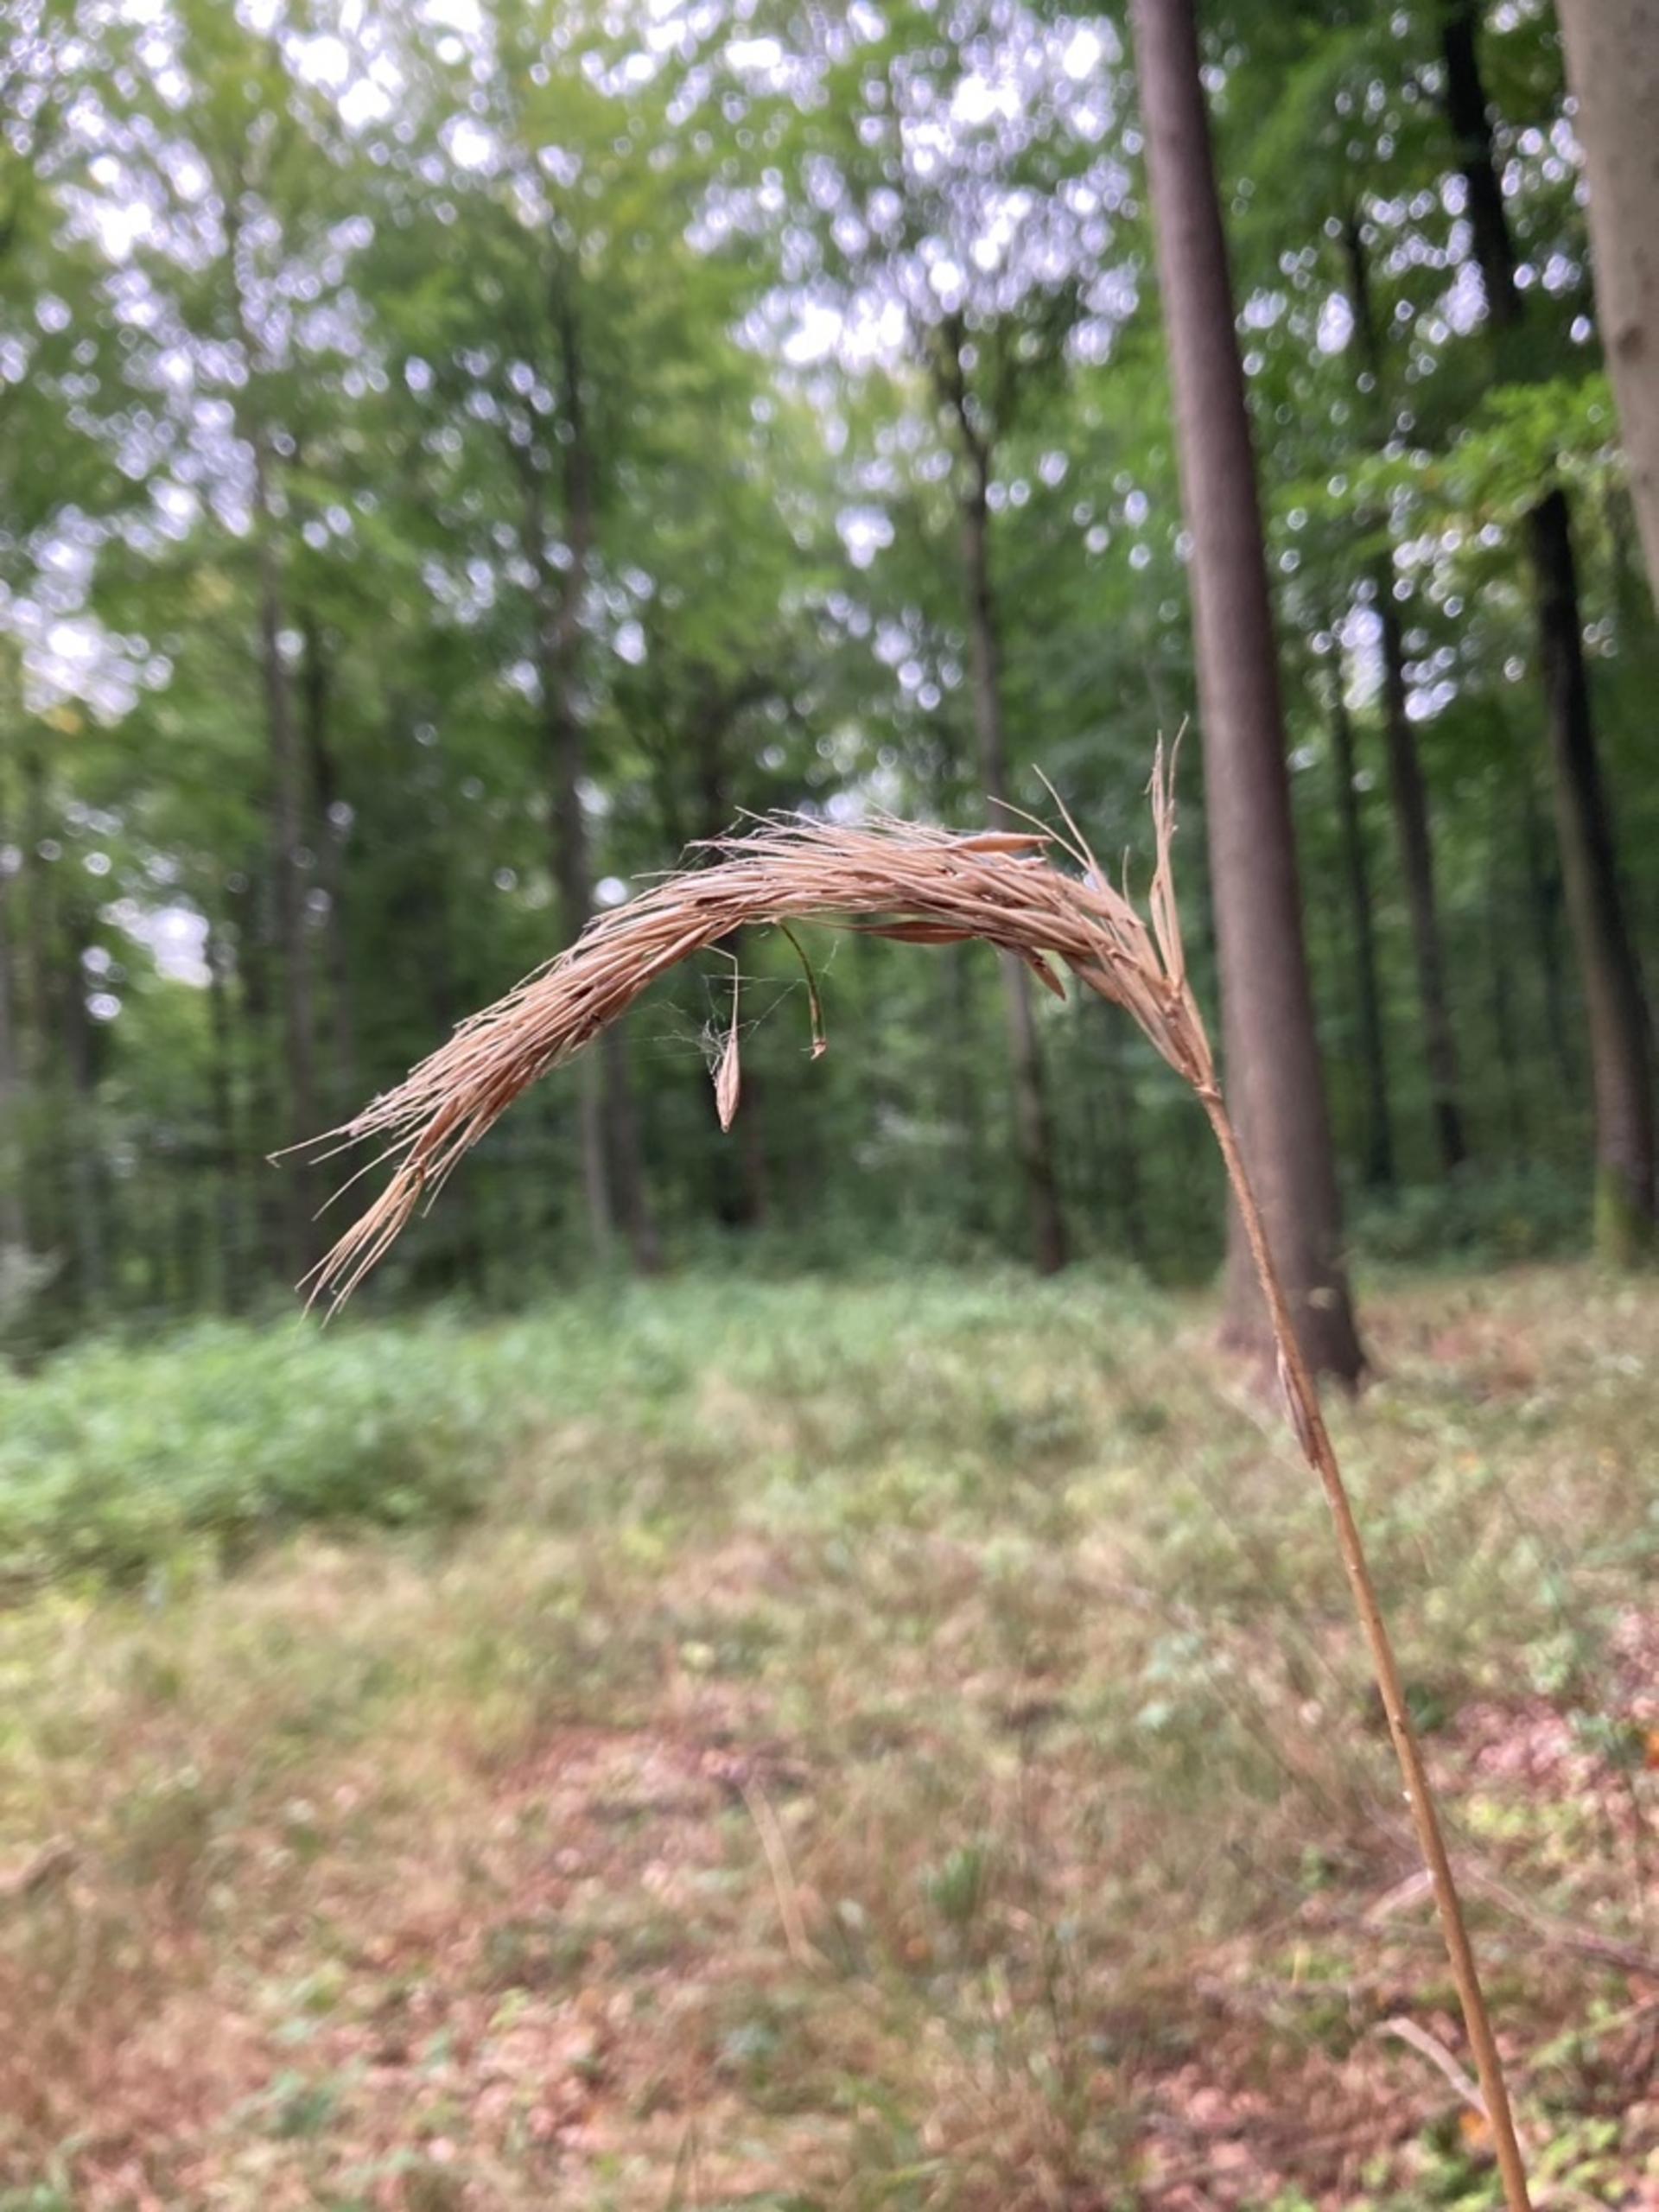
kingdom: Plantae
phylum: Tracheophyta
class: Liliopsida
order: Poales
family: Poaceae
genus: Hordelymus
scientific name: Hordelymus europaeus
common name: Skovbyg
